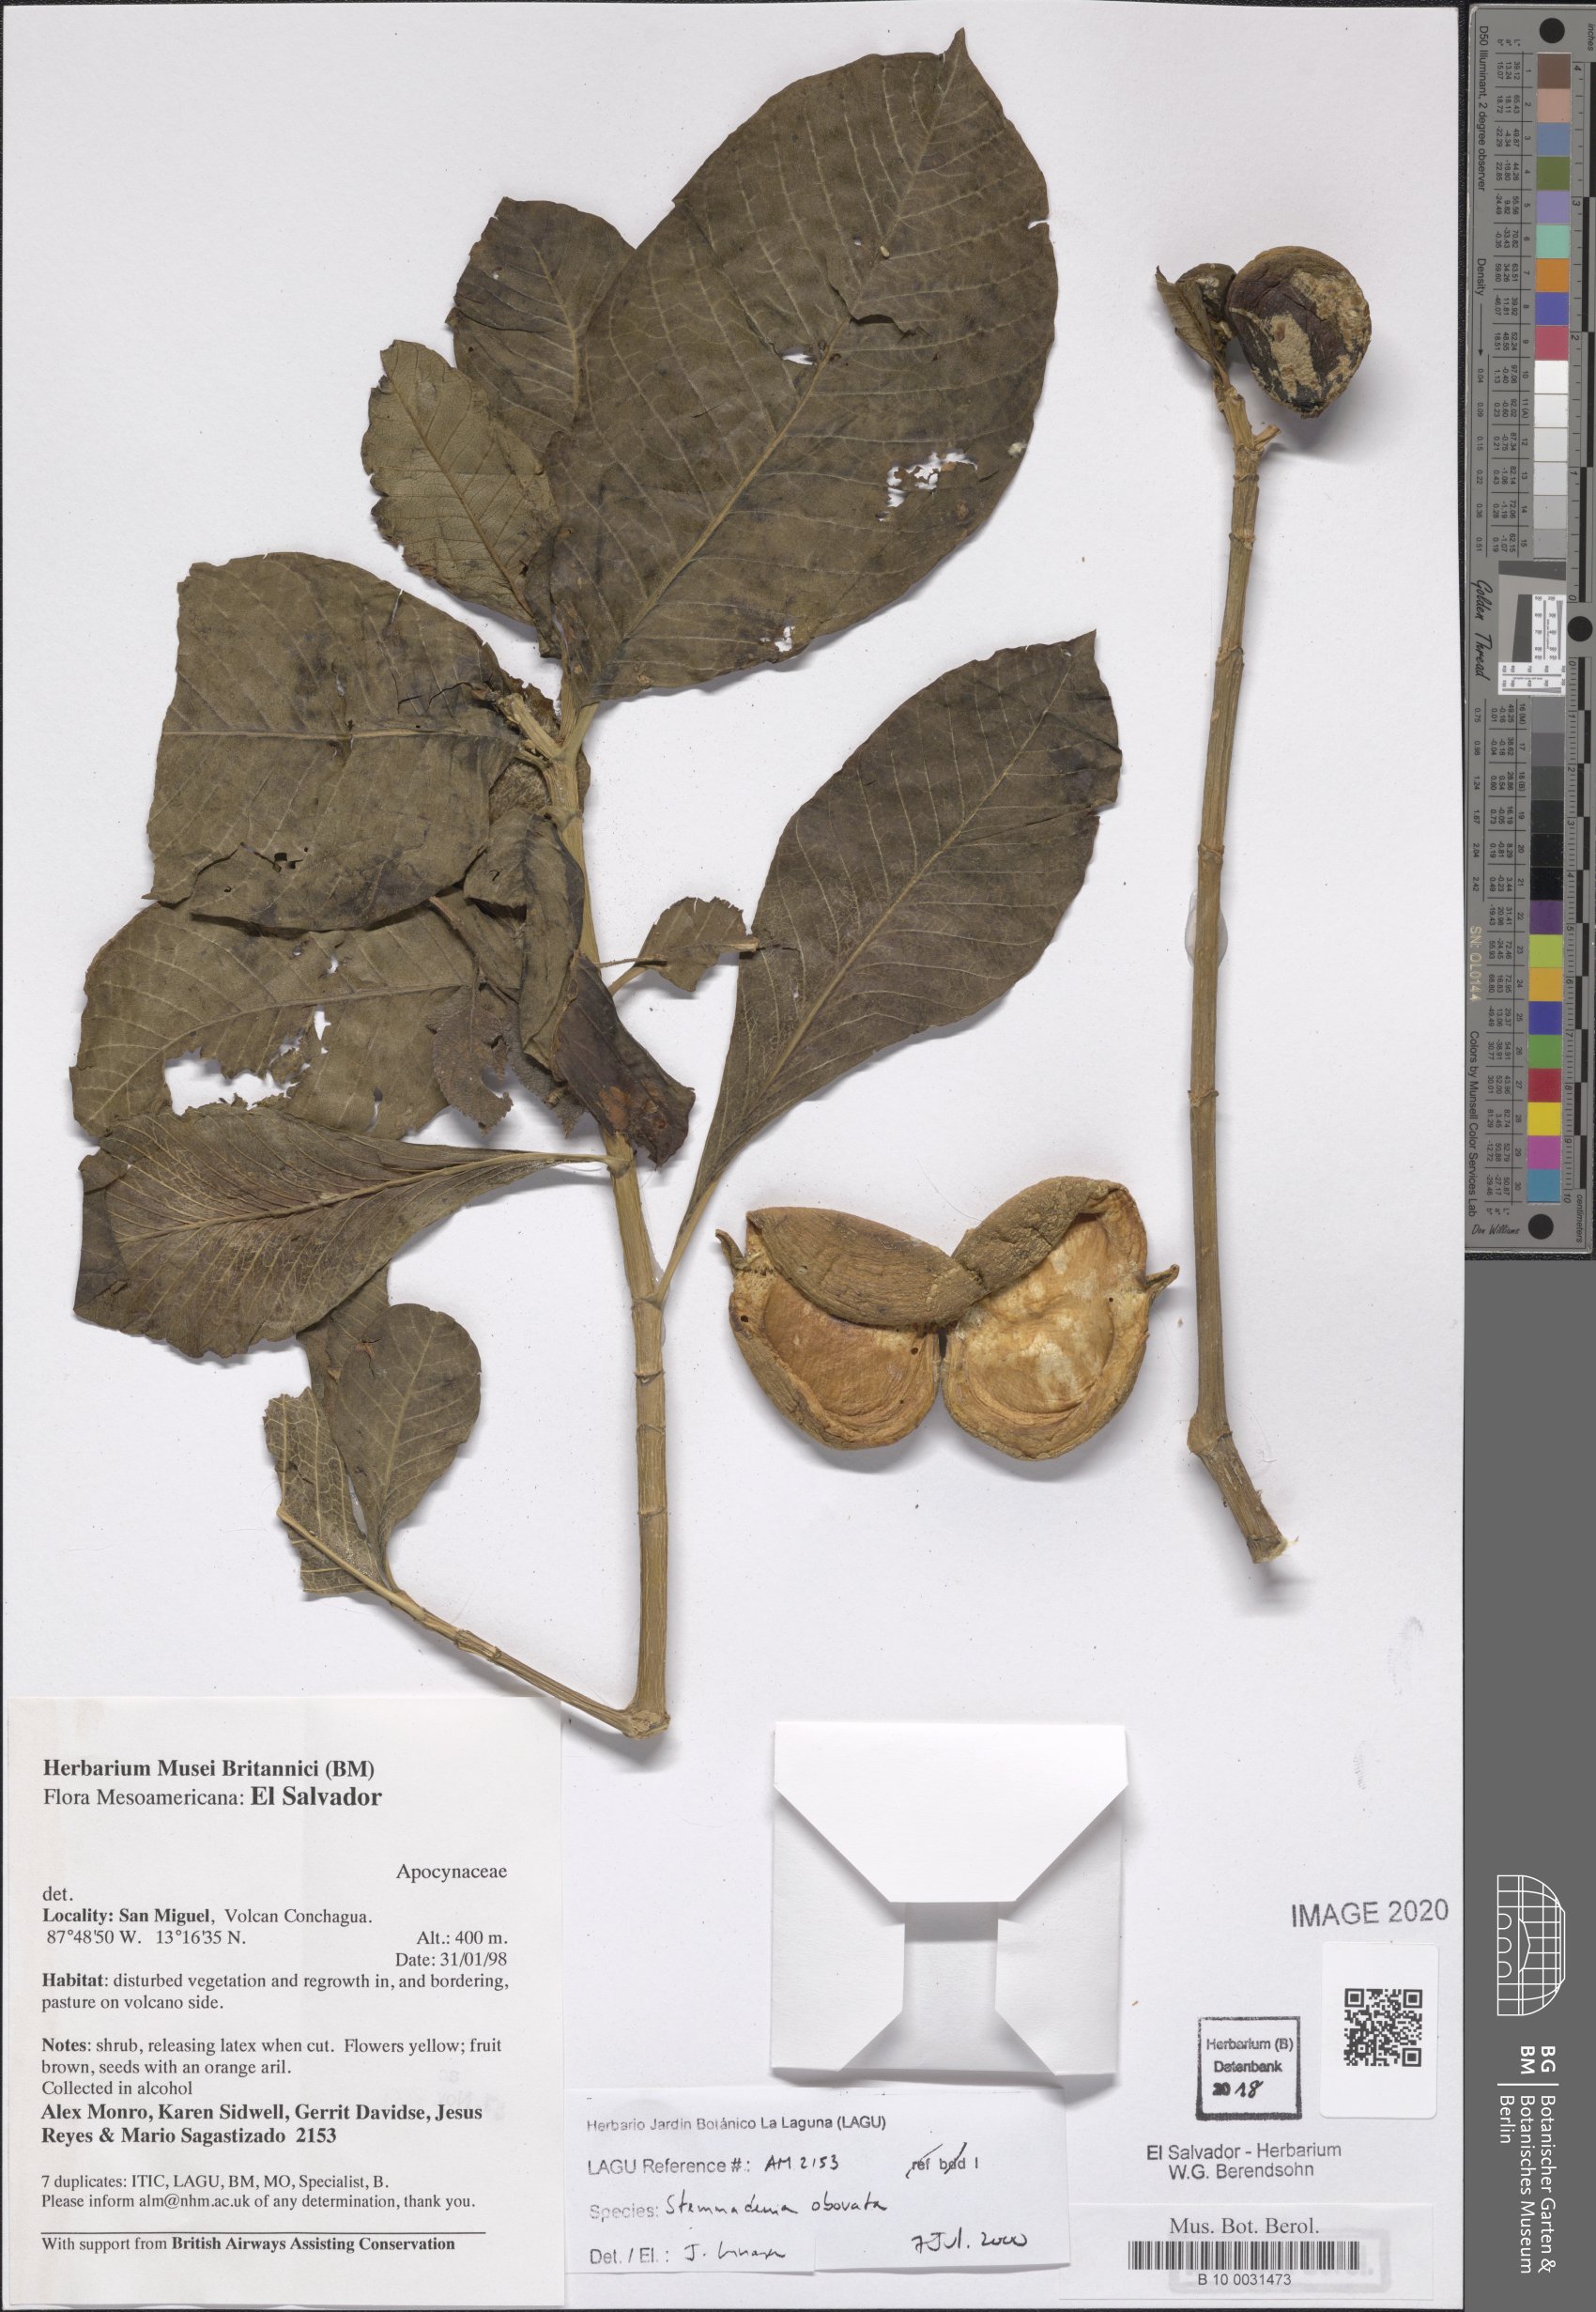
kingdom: Plantae
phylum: Tracheophyta
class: Magnoliopsida
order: Gentianales
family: Apocynaceae
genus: Tabernaemontana
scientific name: Tabernaemontana glabra
